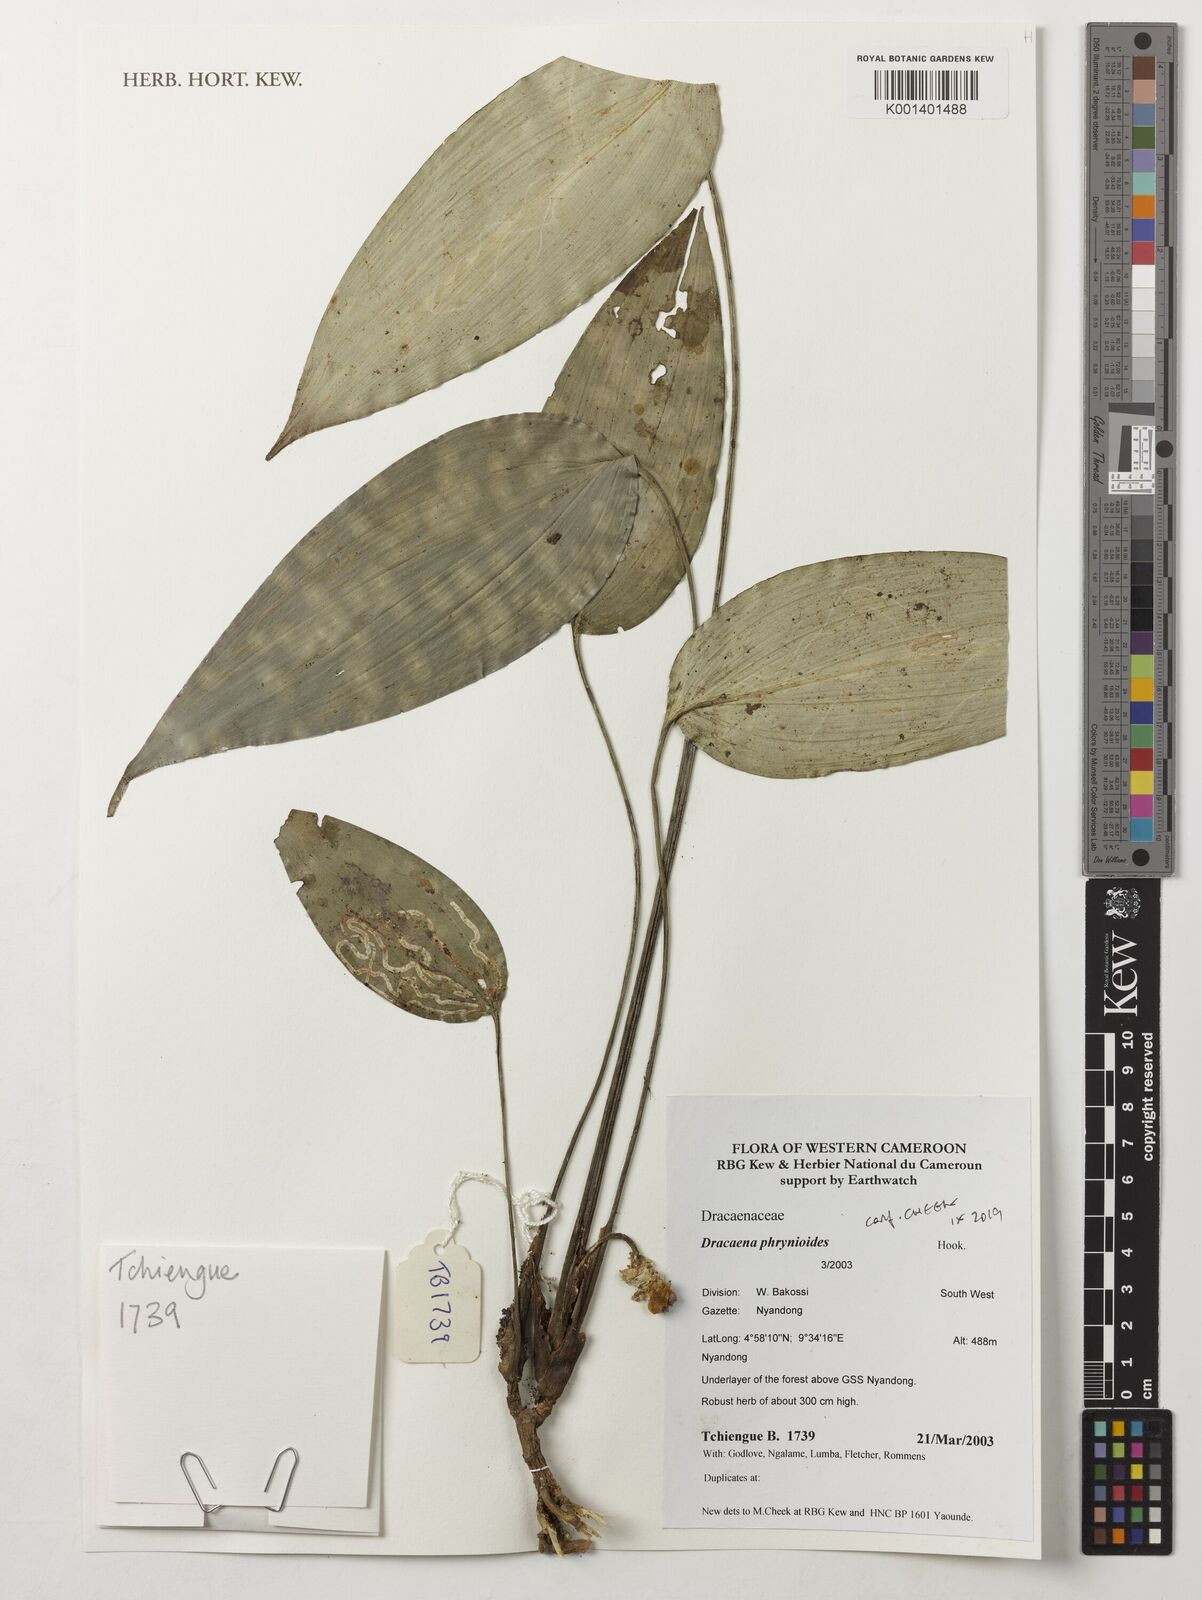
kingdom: Plantae
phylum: Tracheophyta
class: Liliopsida
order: Asparagales
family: Asparagaceae
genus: Dracaena
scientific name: Dracaena phrynioides
